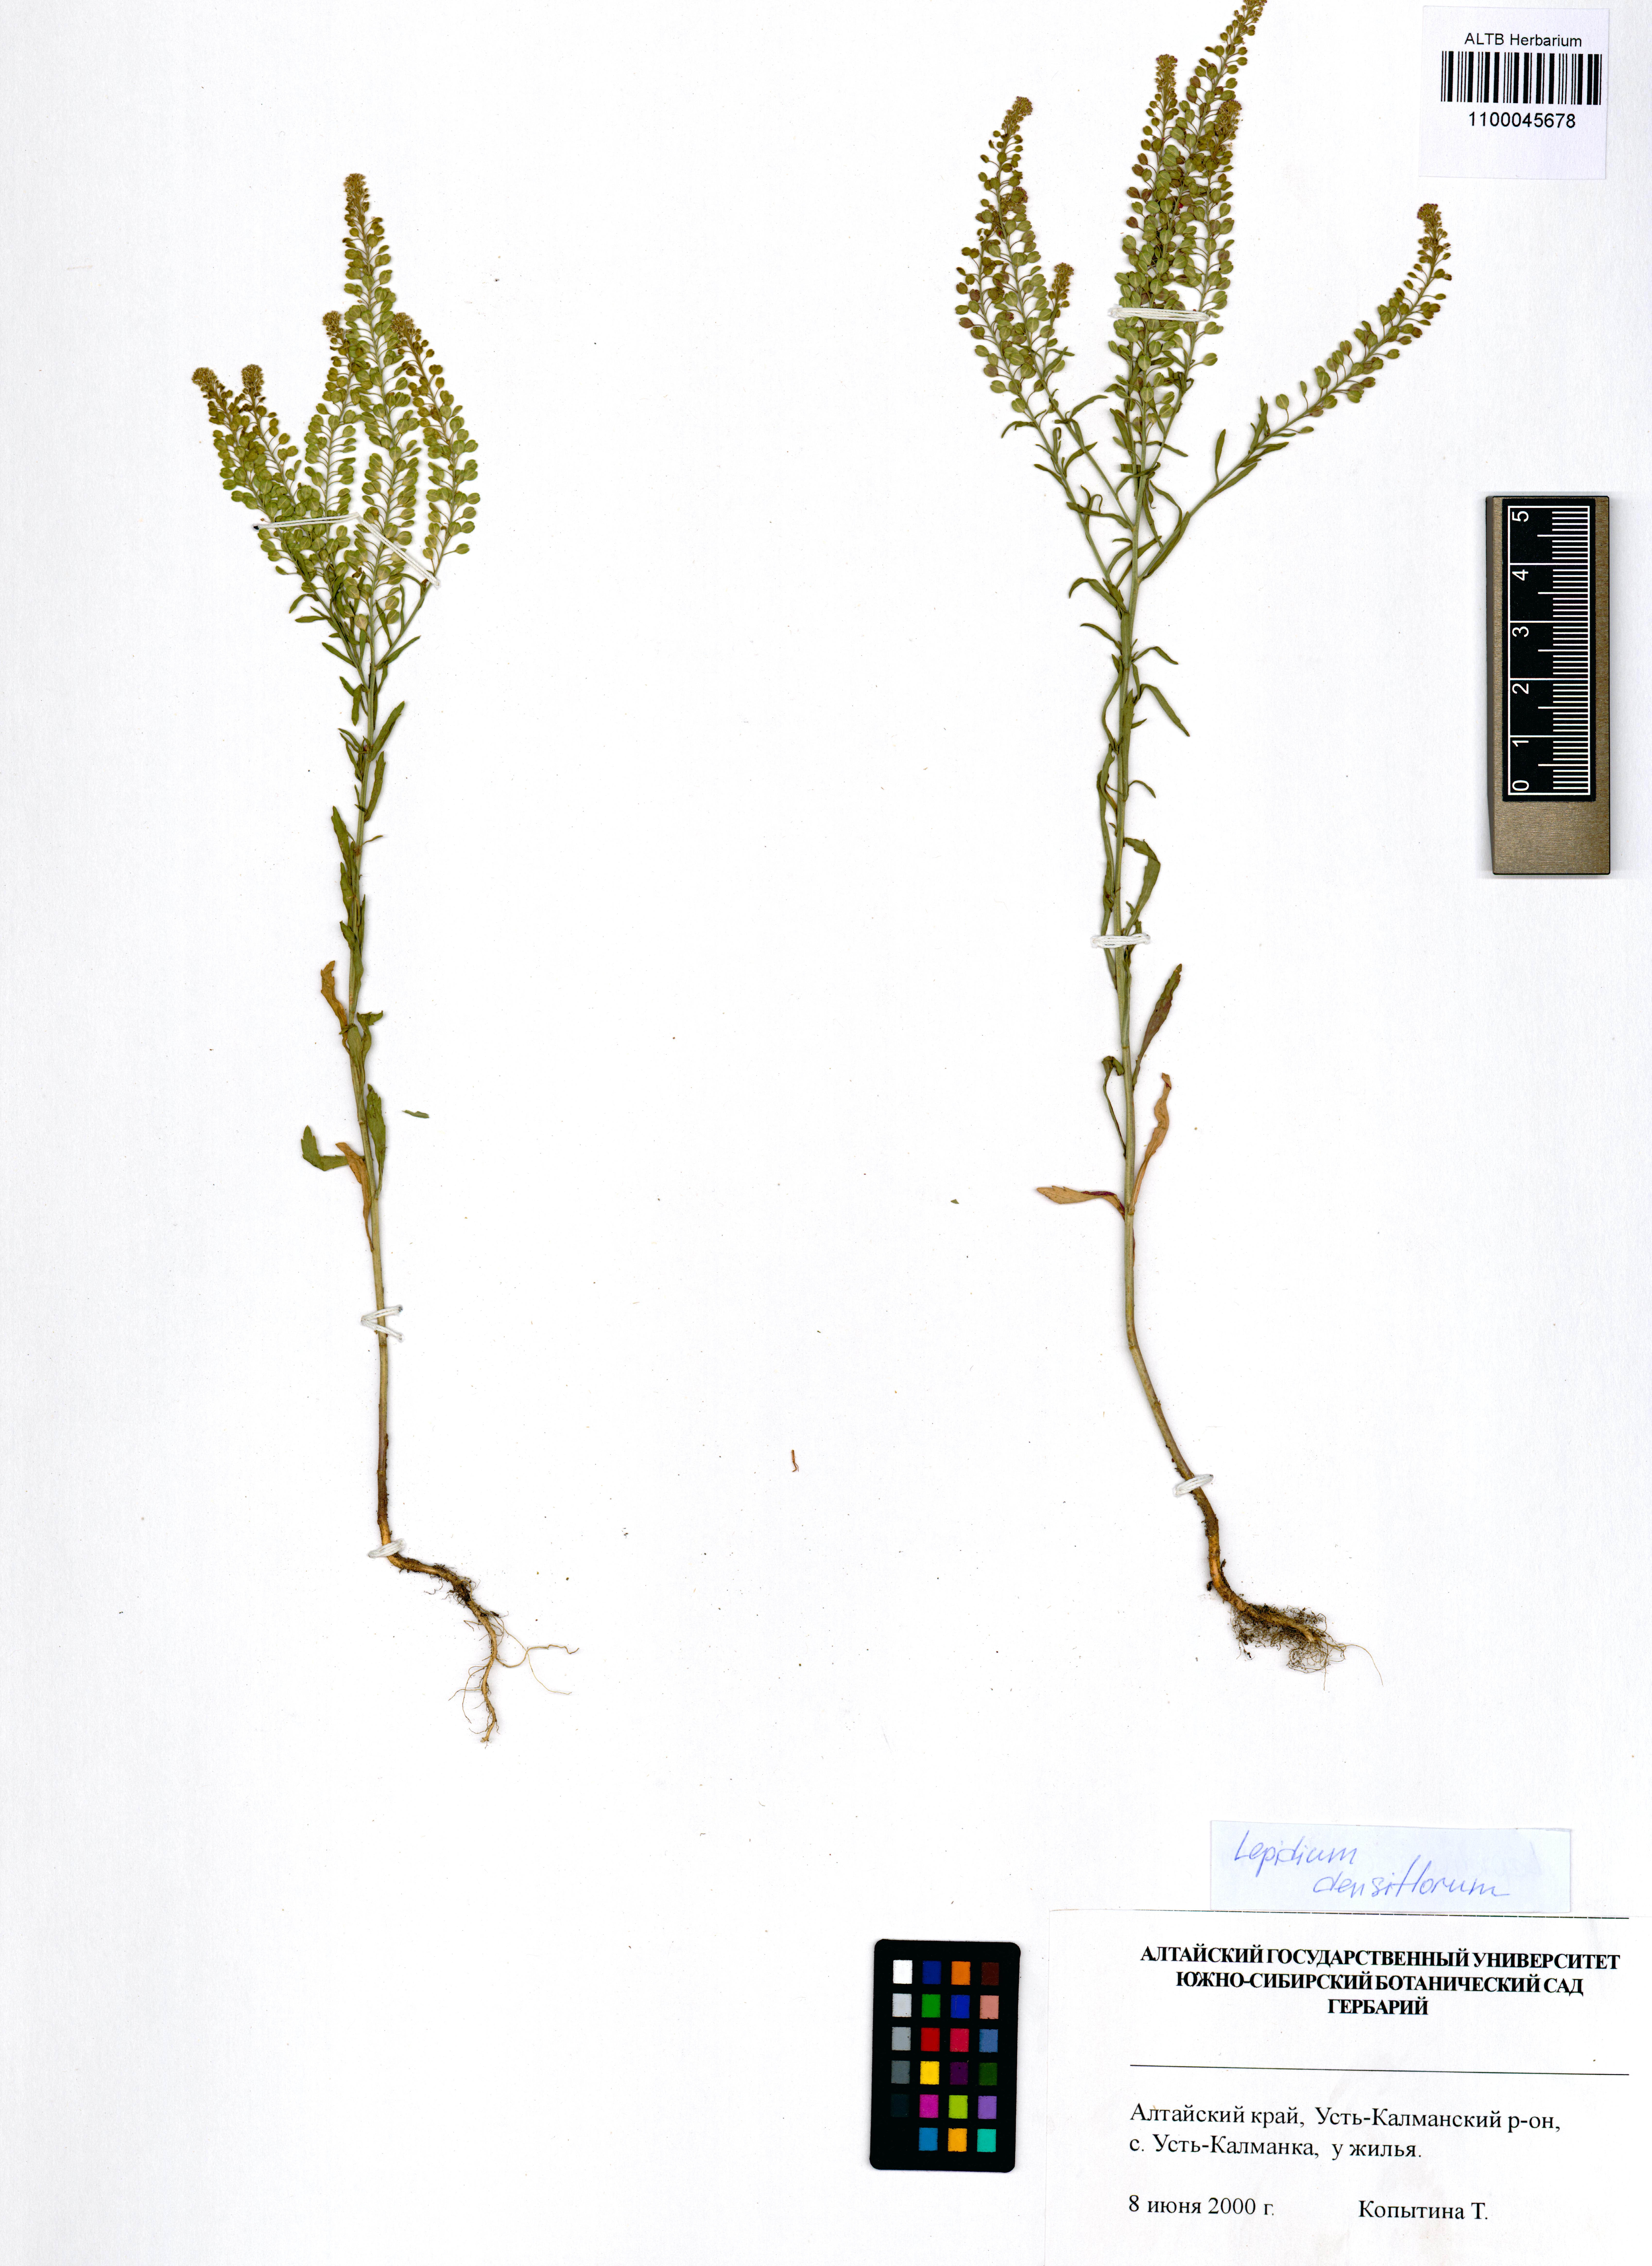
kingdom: Plantae
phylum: Tracheophyta
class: Magnoliopsida
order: Brassicales
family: Brassicaceae
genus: Lepidium
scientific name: Lepidium densiflorum
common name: Miner's pepperwort
